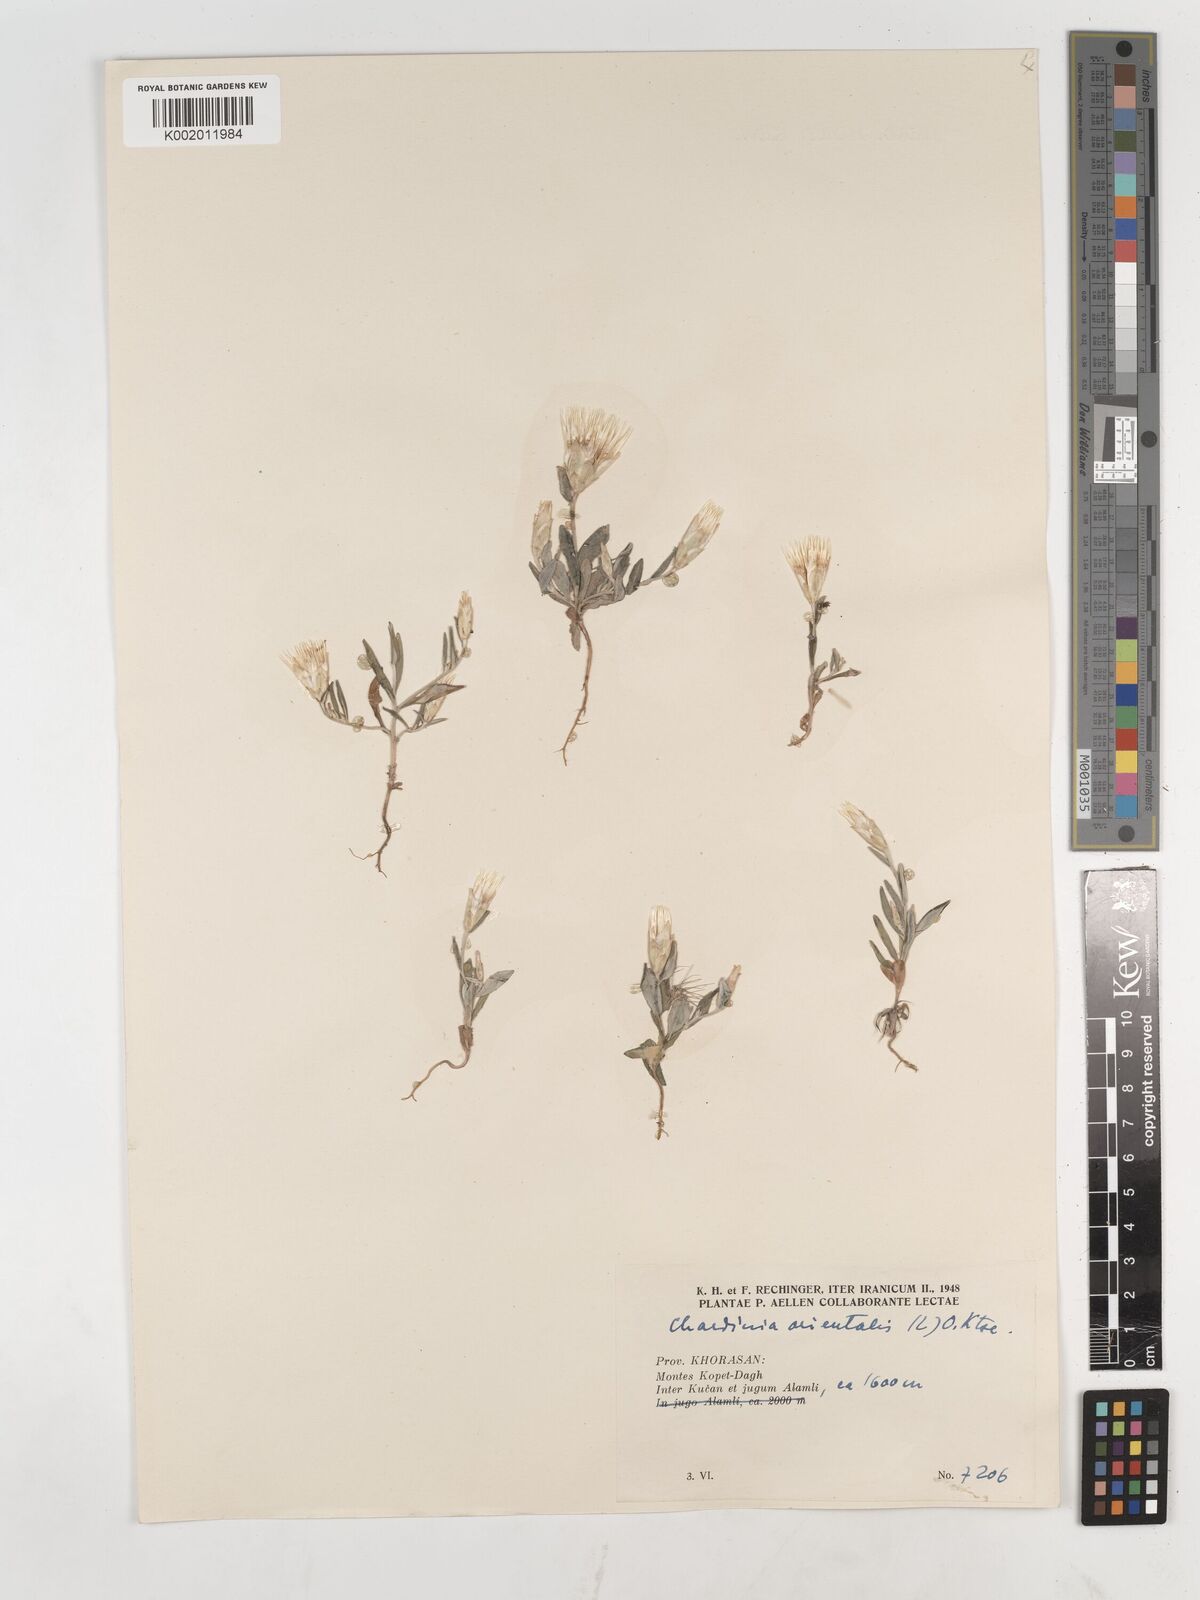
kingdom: Plantae
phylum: Tracheophyta
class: Magnoliopsida
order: Asterales
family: Asteraceae
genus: Chardinia
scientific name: Chardinia orientalis
